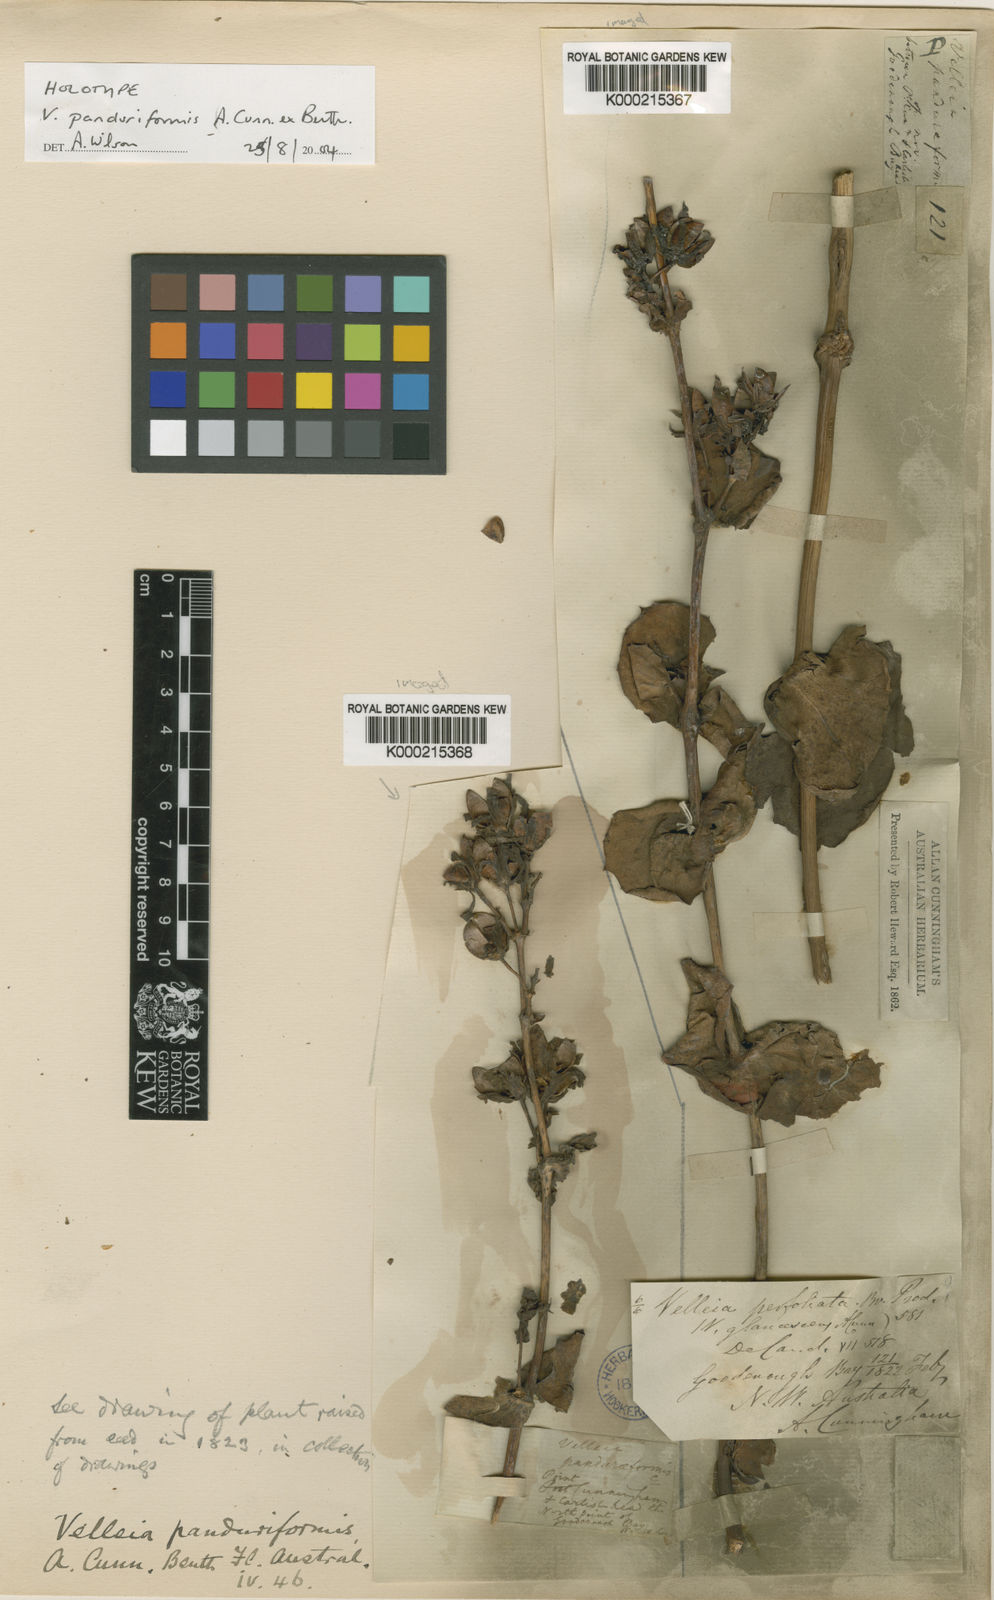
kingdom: Plantae
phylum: Tracheophyta
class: Magnoliopsida
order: Asterales
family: Goodeniaceae
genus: Goodenia
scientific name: Goodenia panduriformis
